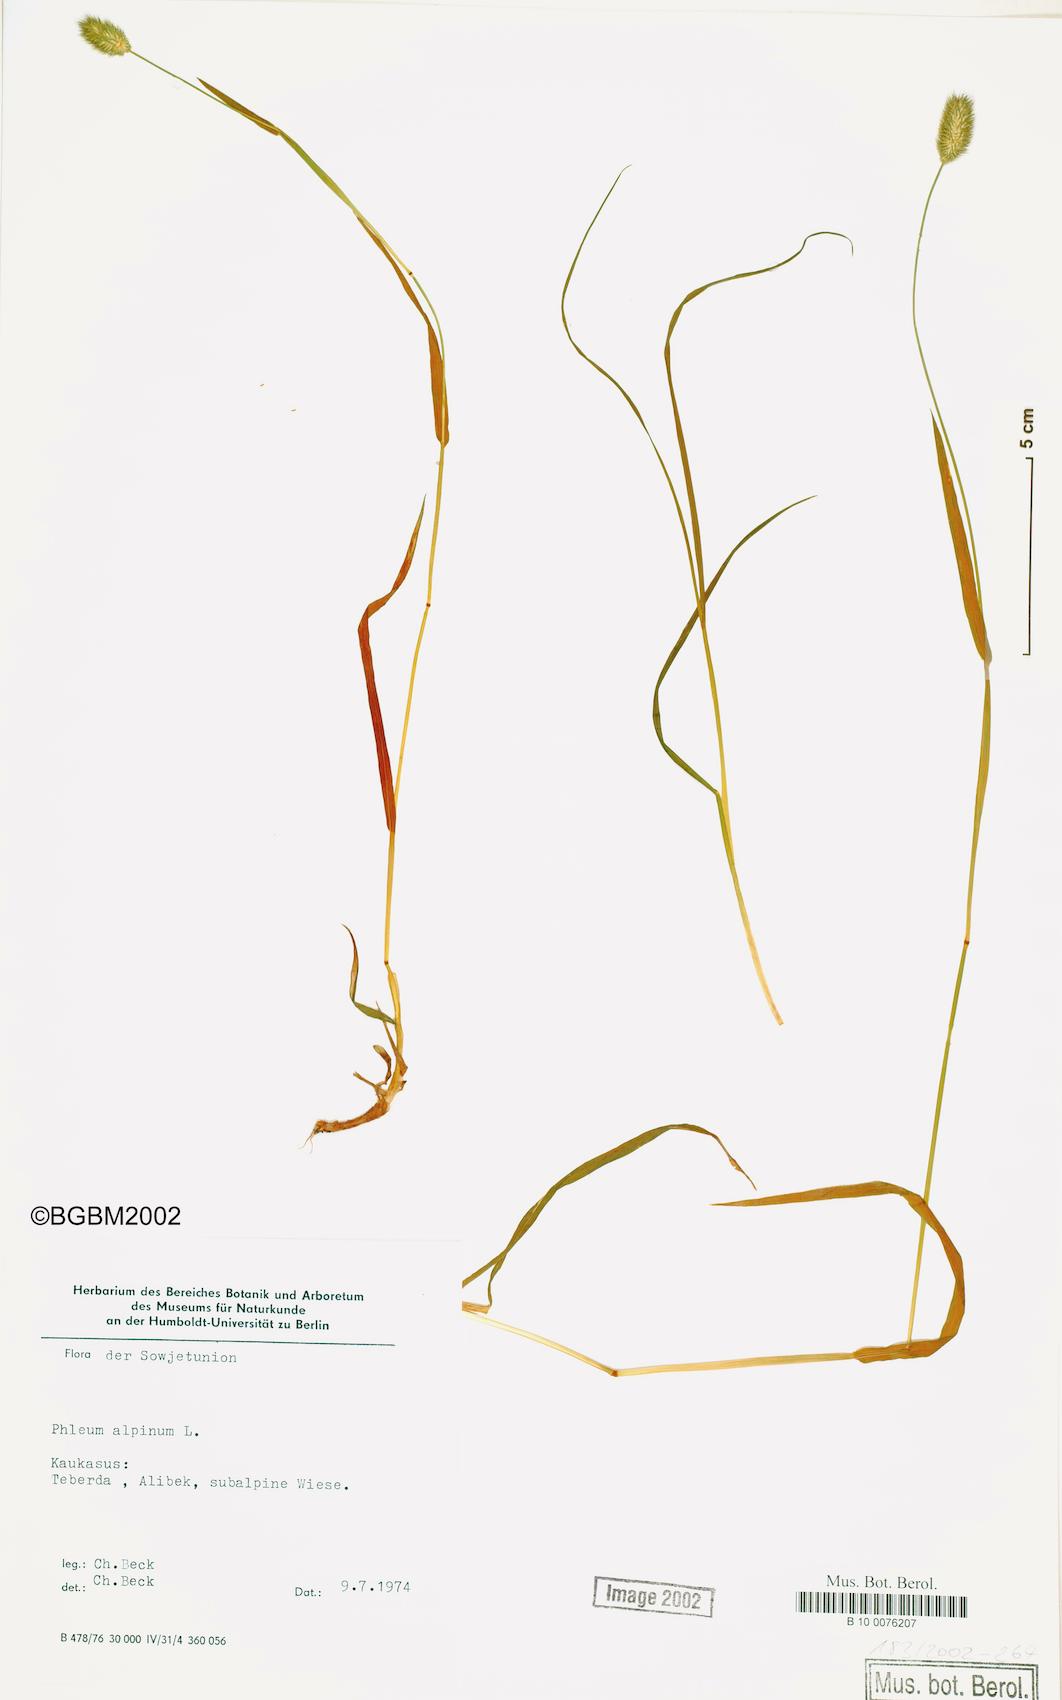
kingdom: Plantae
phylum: Tracheophyta
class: Liliopsida
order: Poales
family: Poaceae
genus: Phleum
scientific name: Phleum alpinum
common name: Alpine cat's-tail
